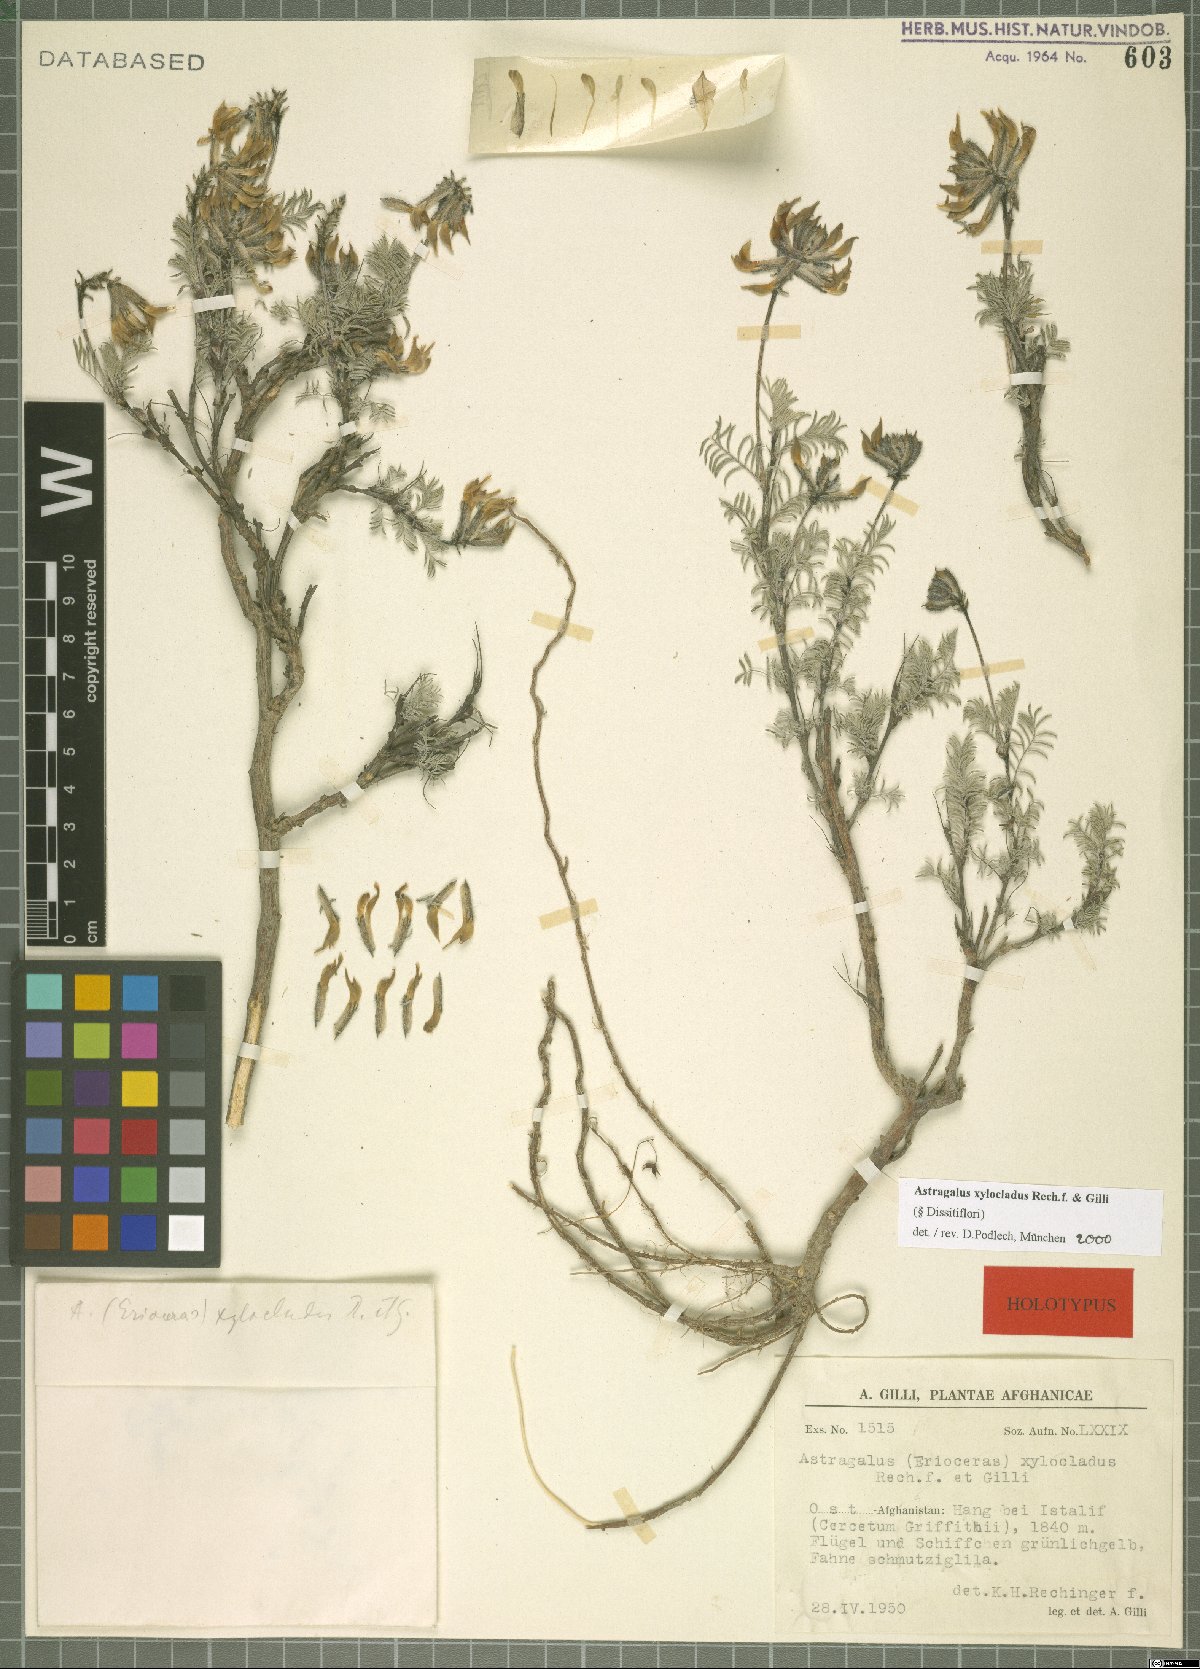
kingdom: Plantae
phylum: Tracheophyta
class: Magnoliopsida
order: Fabales
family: Fabaceae
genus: Astragalus
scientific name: Astragalus xylocladus
